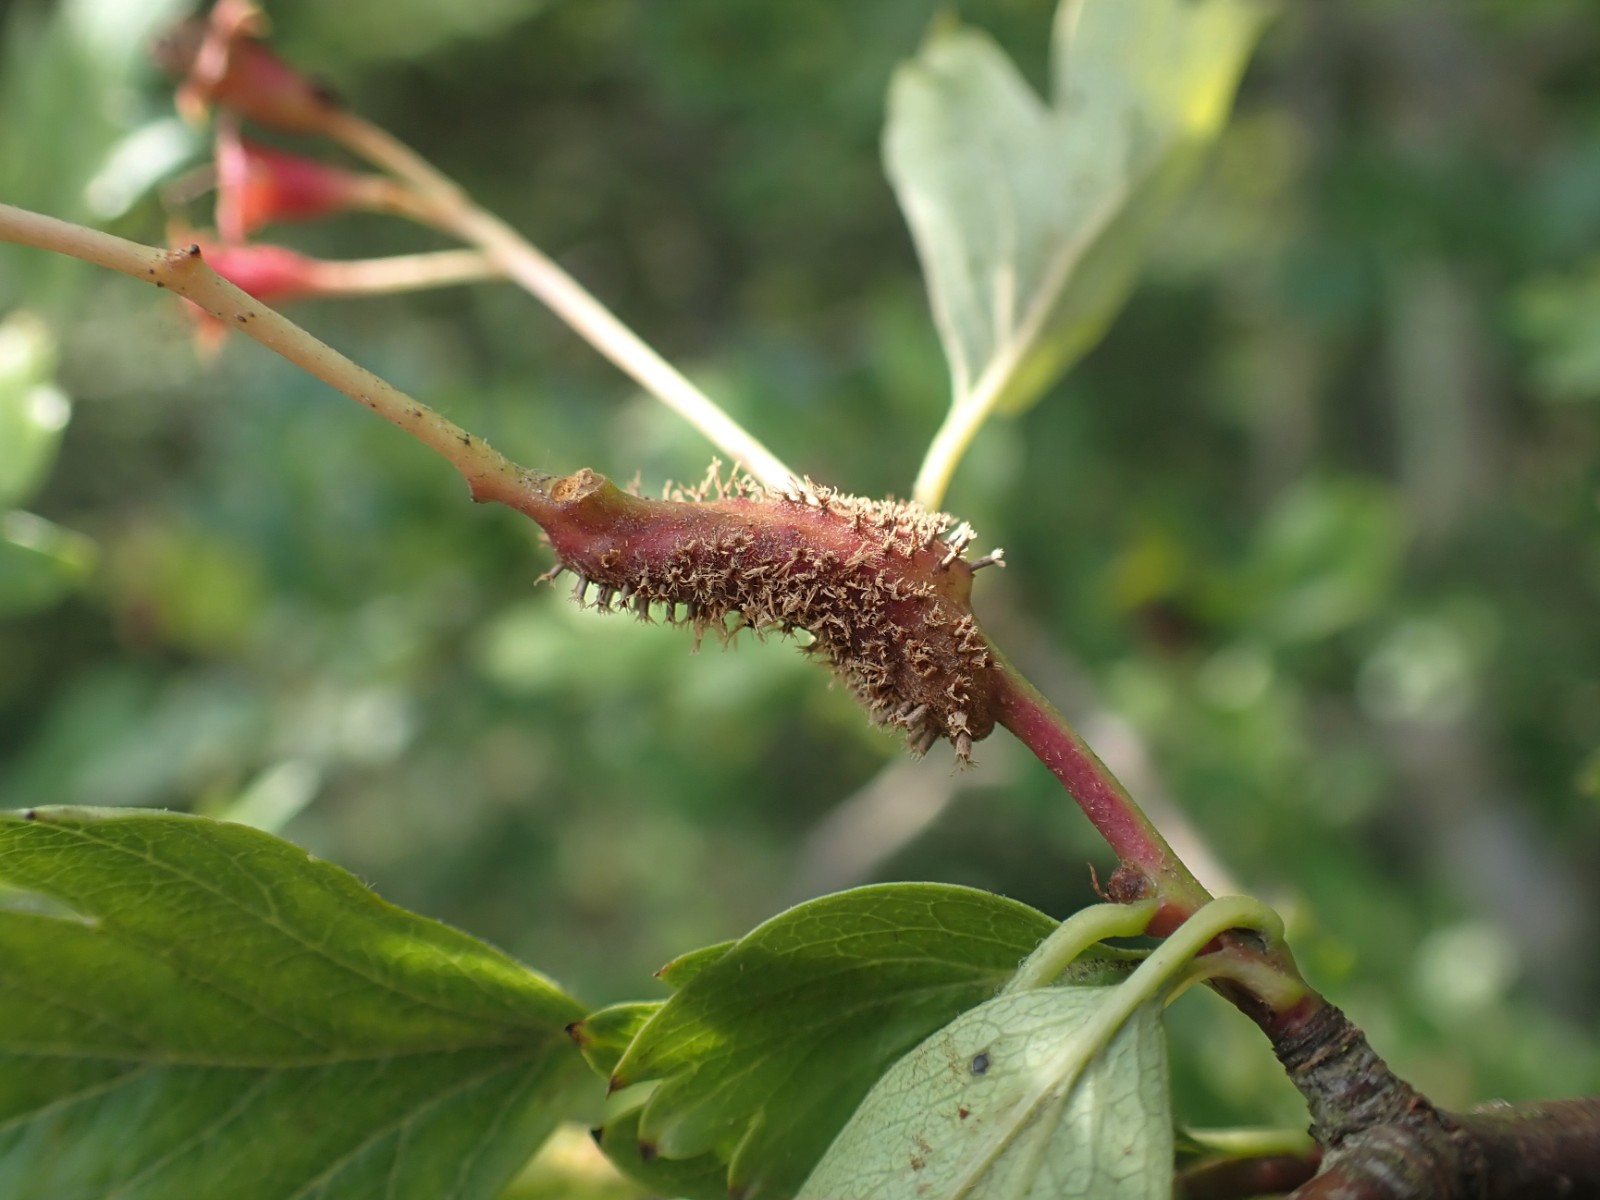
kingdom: Fungi
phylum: Basidiomycota
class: Pucciniomycetes
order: Pucciniales
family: Gymnosporangiaceae
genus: Gymnosporangium
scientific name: Gymnosporangium
